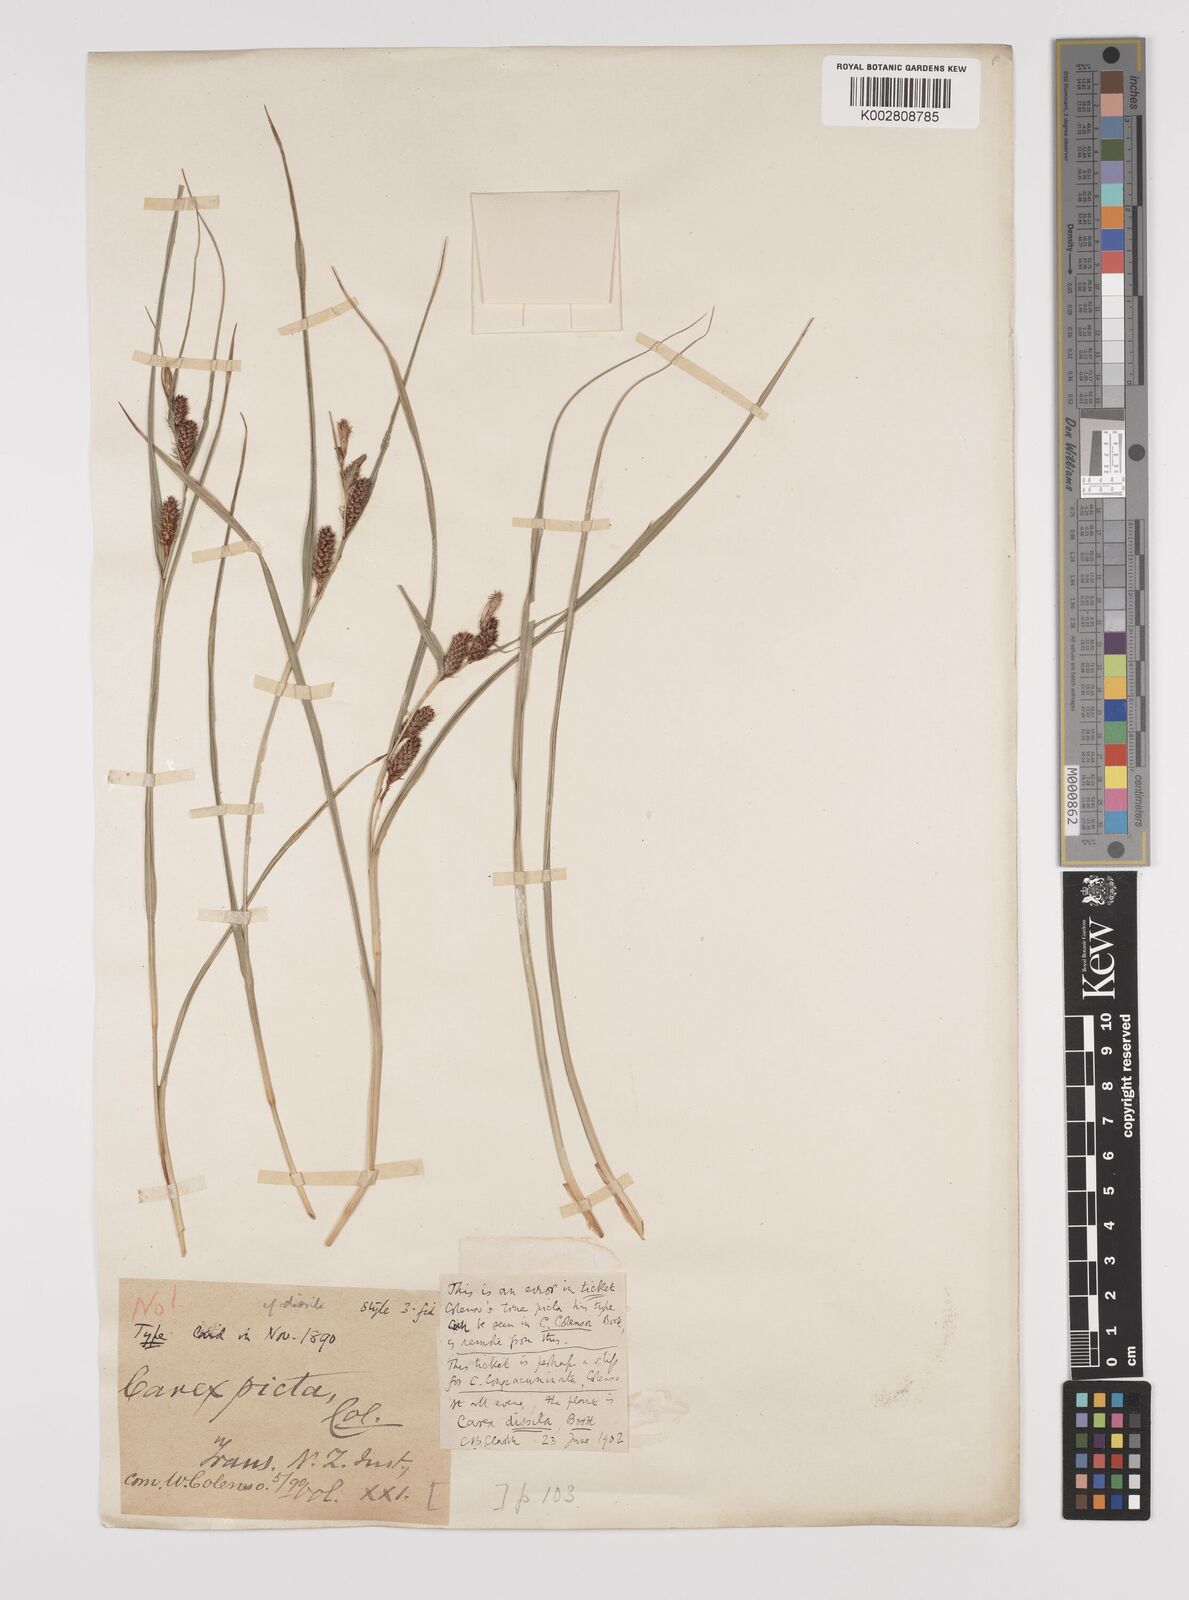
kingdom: Plantae
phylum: Tracheophyta
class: Liliopsida
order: Poales
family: Cyperaceae
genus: Carex
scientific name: Carex dissita
